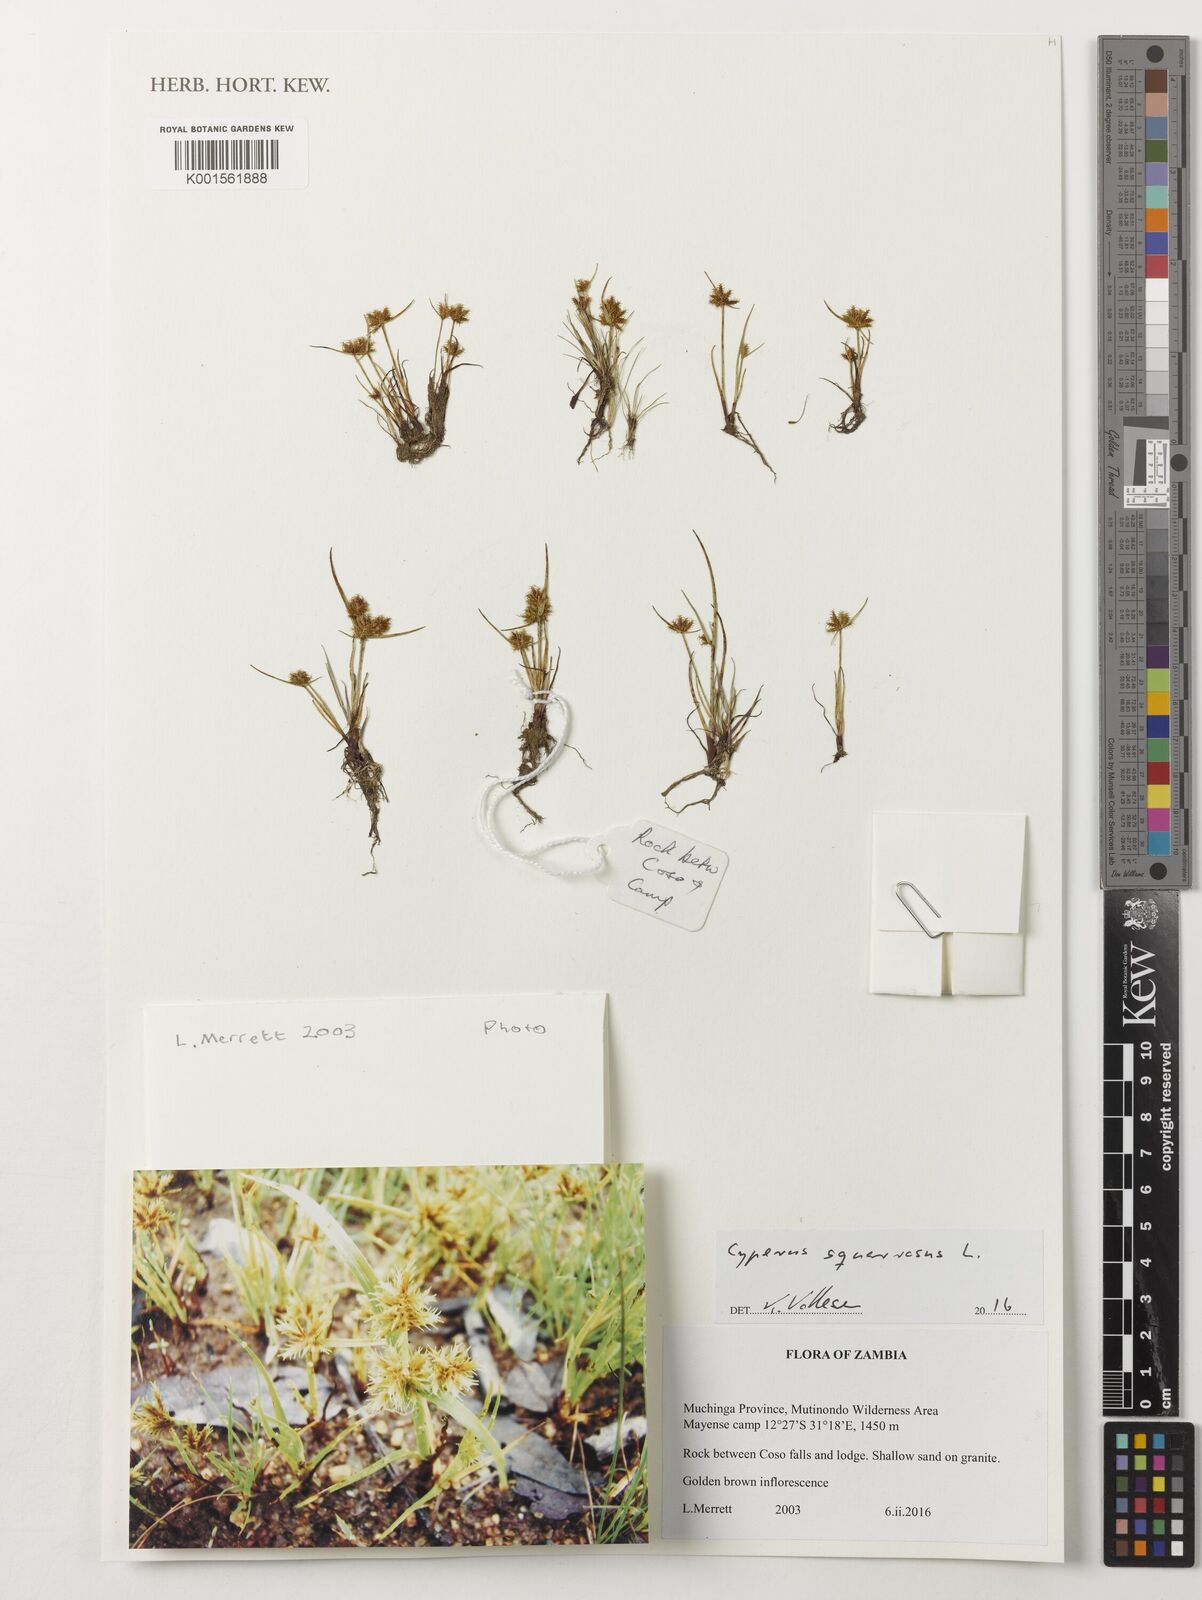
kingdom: Plantae
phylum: Tracheophyta
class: Liliopsida
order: Poales
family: Cyperaceae
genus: Cyperus
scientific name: Cyperus squarrosus
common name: Awned cyperus
